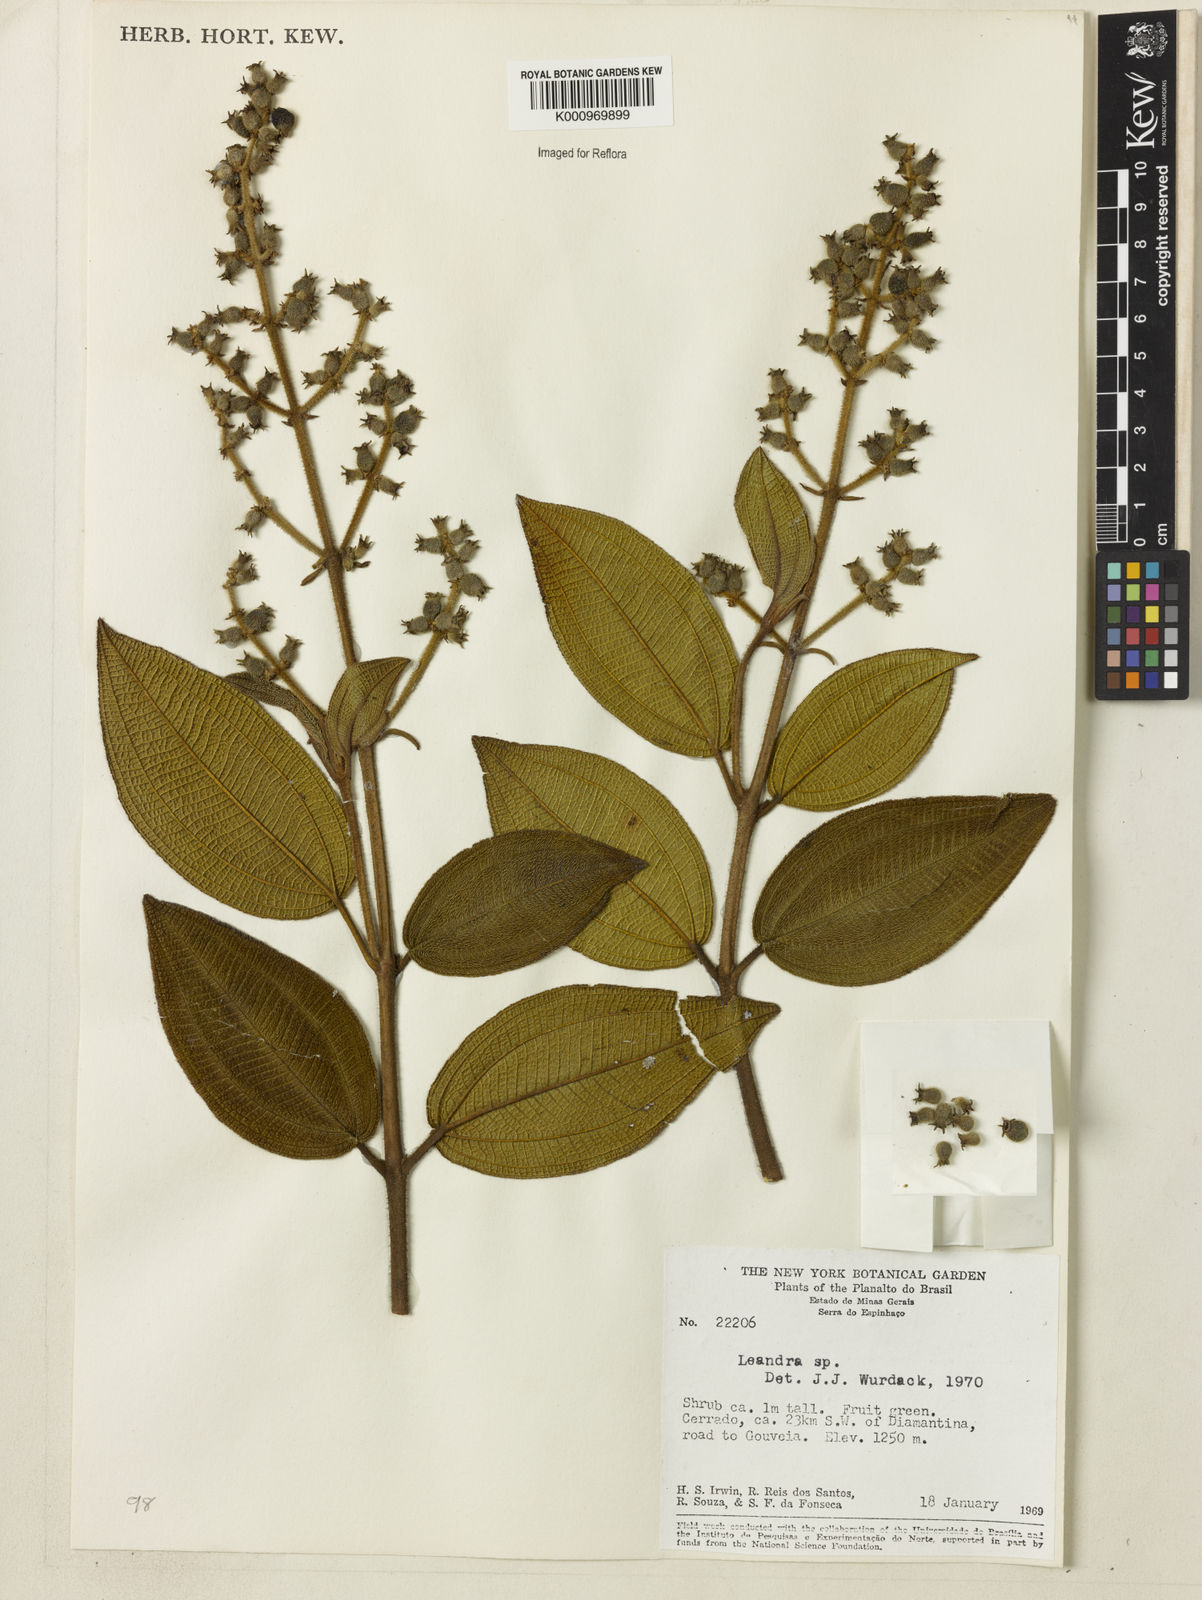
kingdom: Plantae
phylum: Tracheophyta
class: Magnoliopsida
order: Myrtales
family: Melastomataceae
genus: Miconia
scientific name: Miconia
